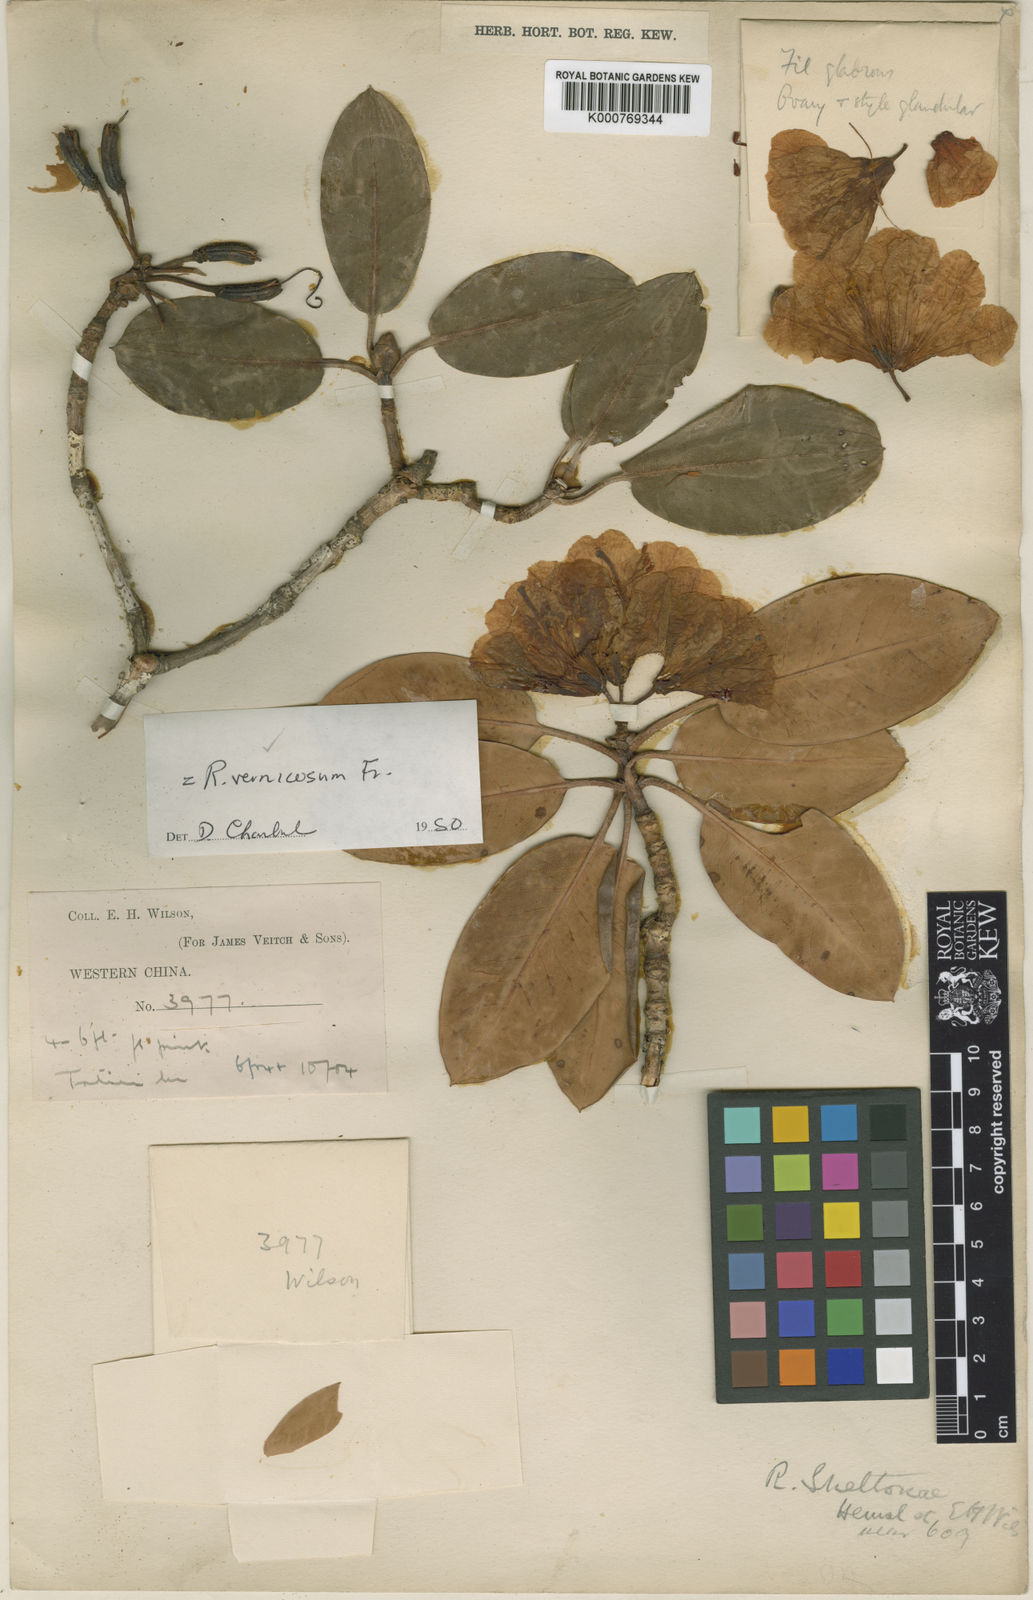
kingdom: Plantae
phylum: Tracheophyta
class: Magnoliopsida
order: Ericales
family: Ericaceae
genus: Rhododendron
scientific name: Rhododendron vernicosum
